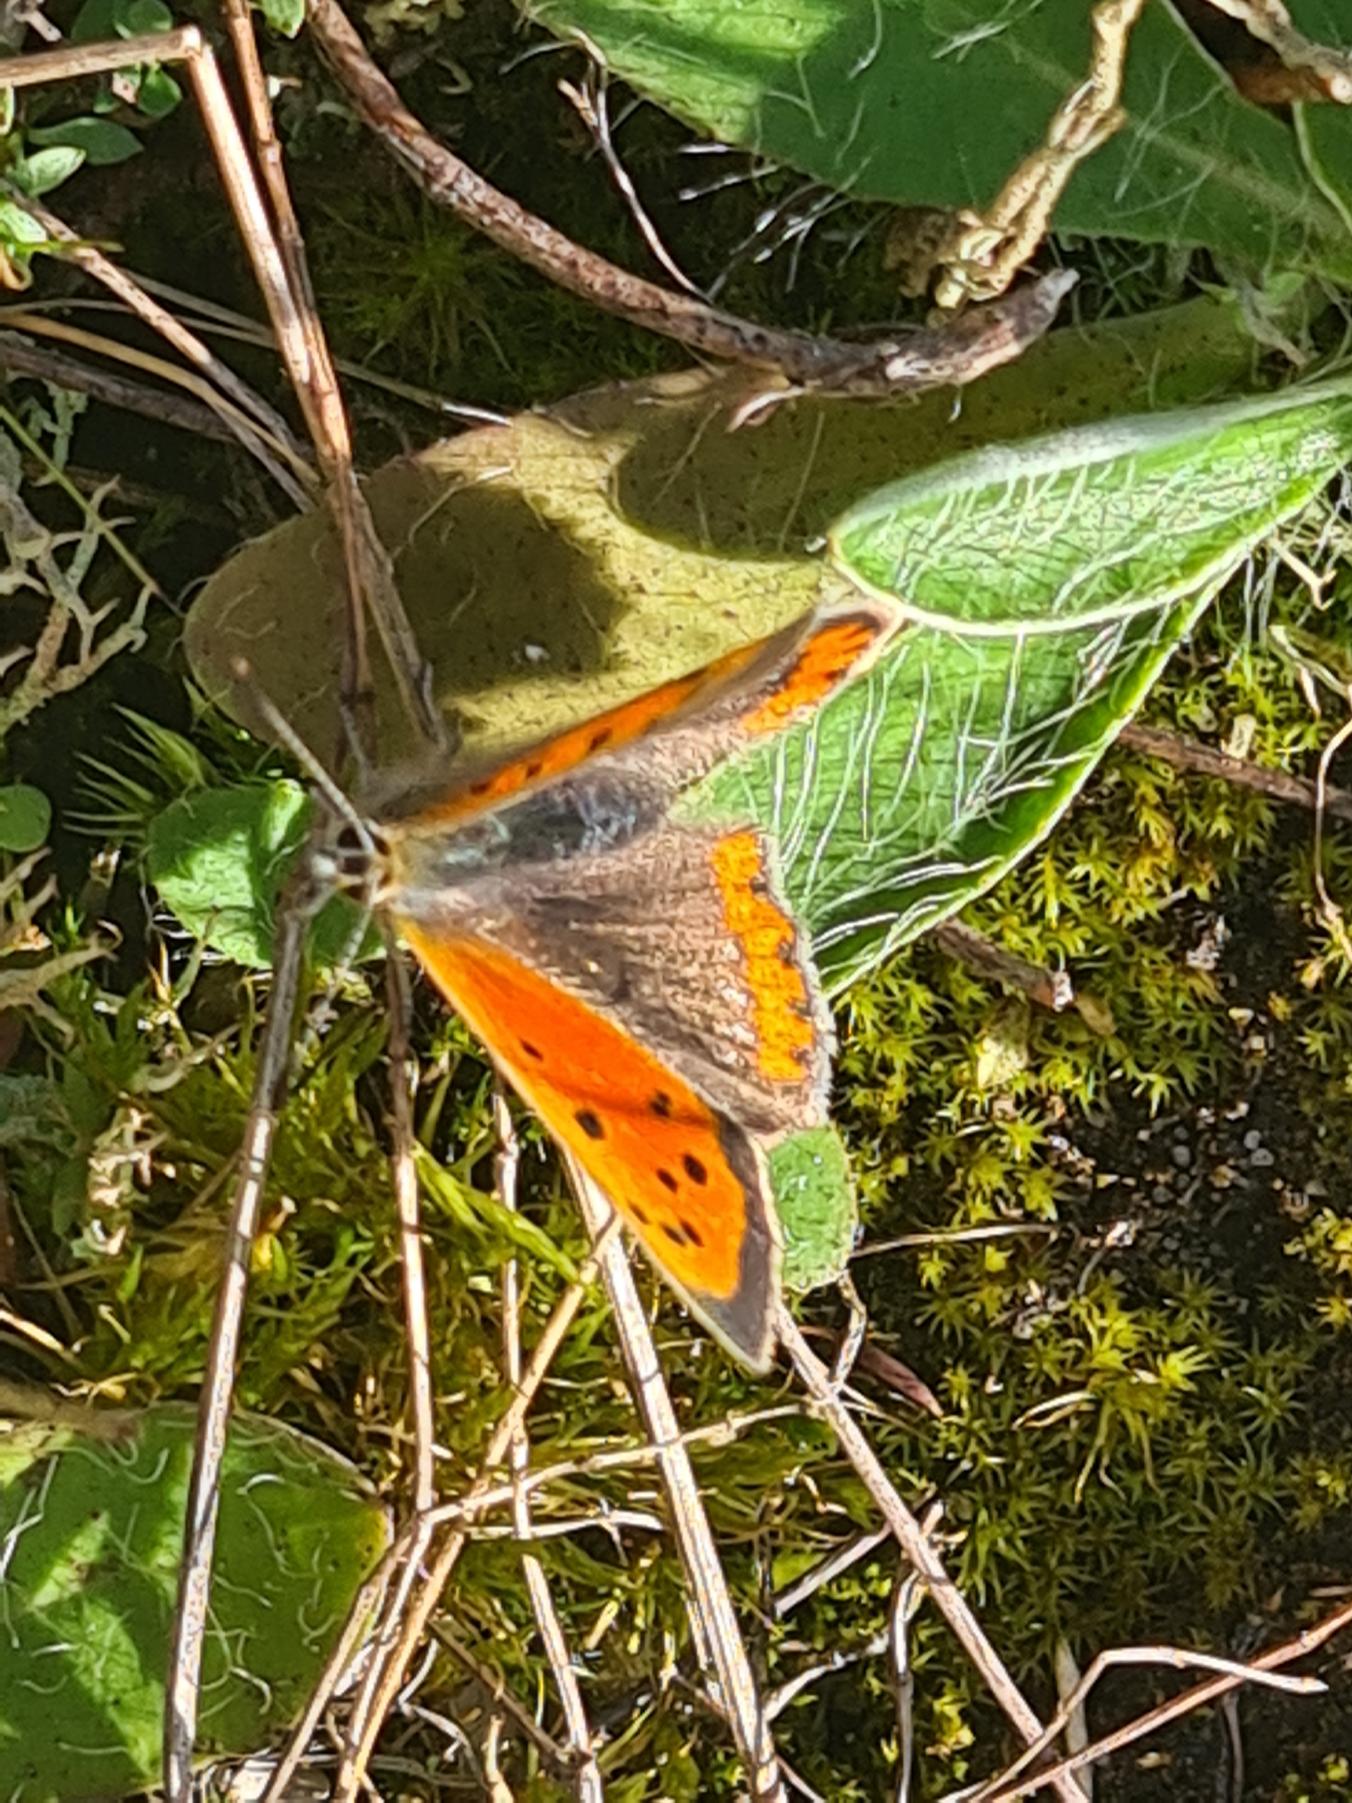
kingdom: Animalia
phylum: Arthropoda
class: Insecta
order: Lepidoptera
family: Lycaenidae
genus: Lycaena
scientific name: Lycaena phlaeas
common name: Lille ildfugl
